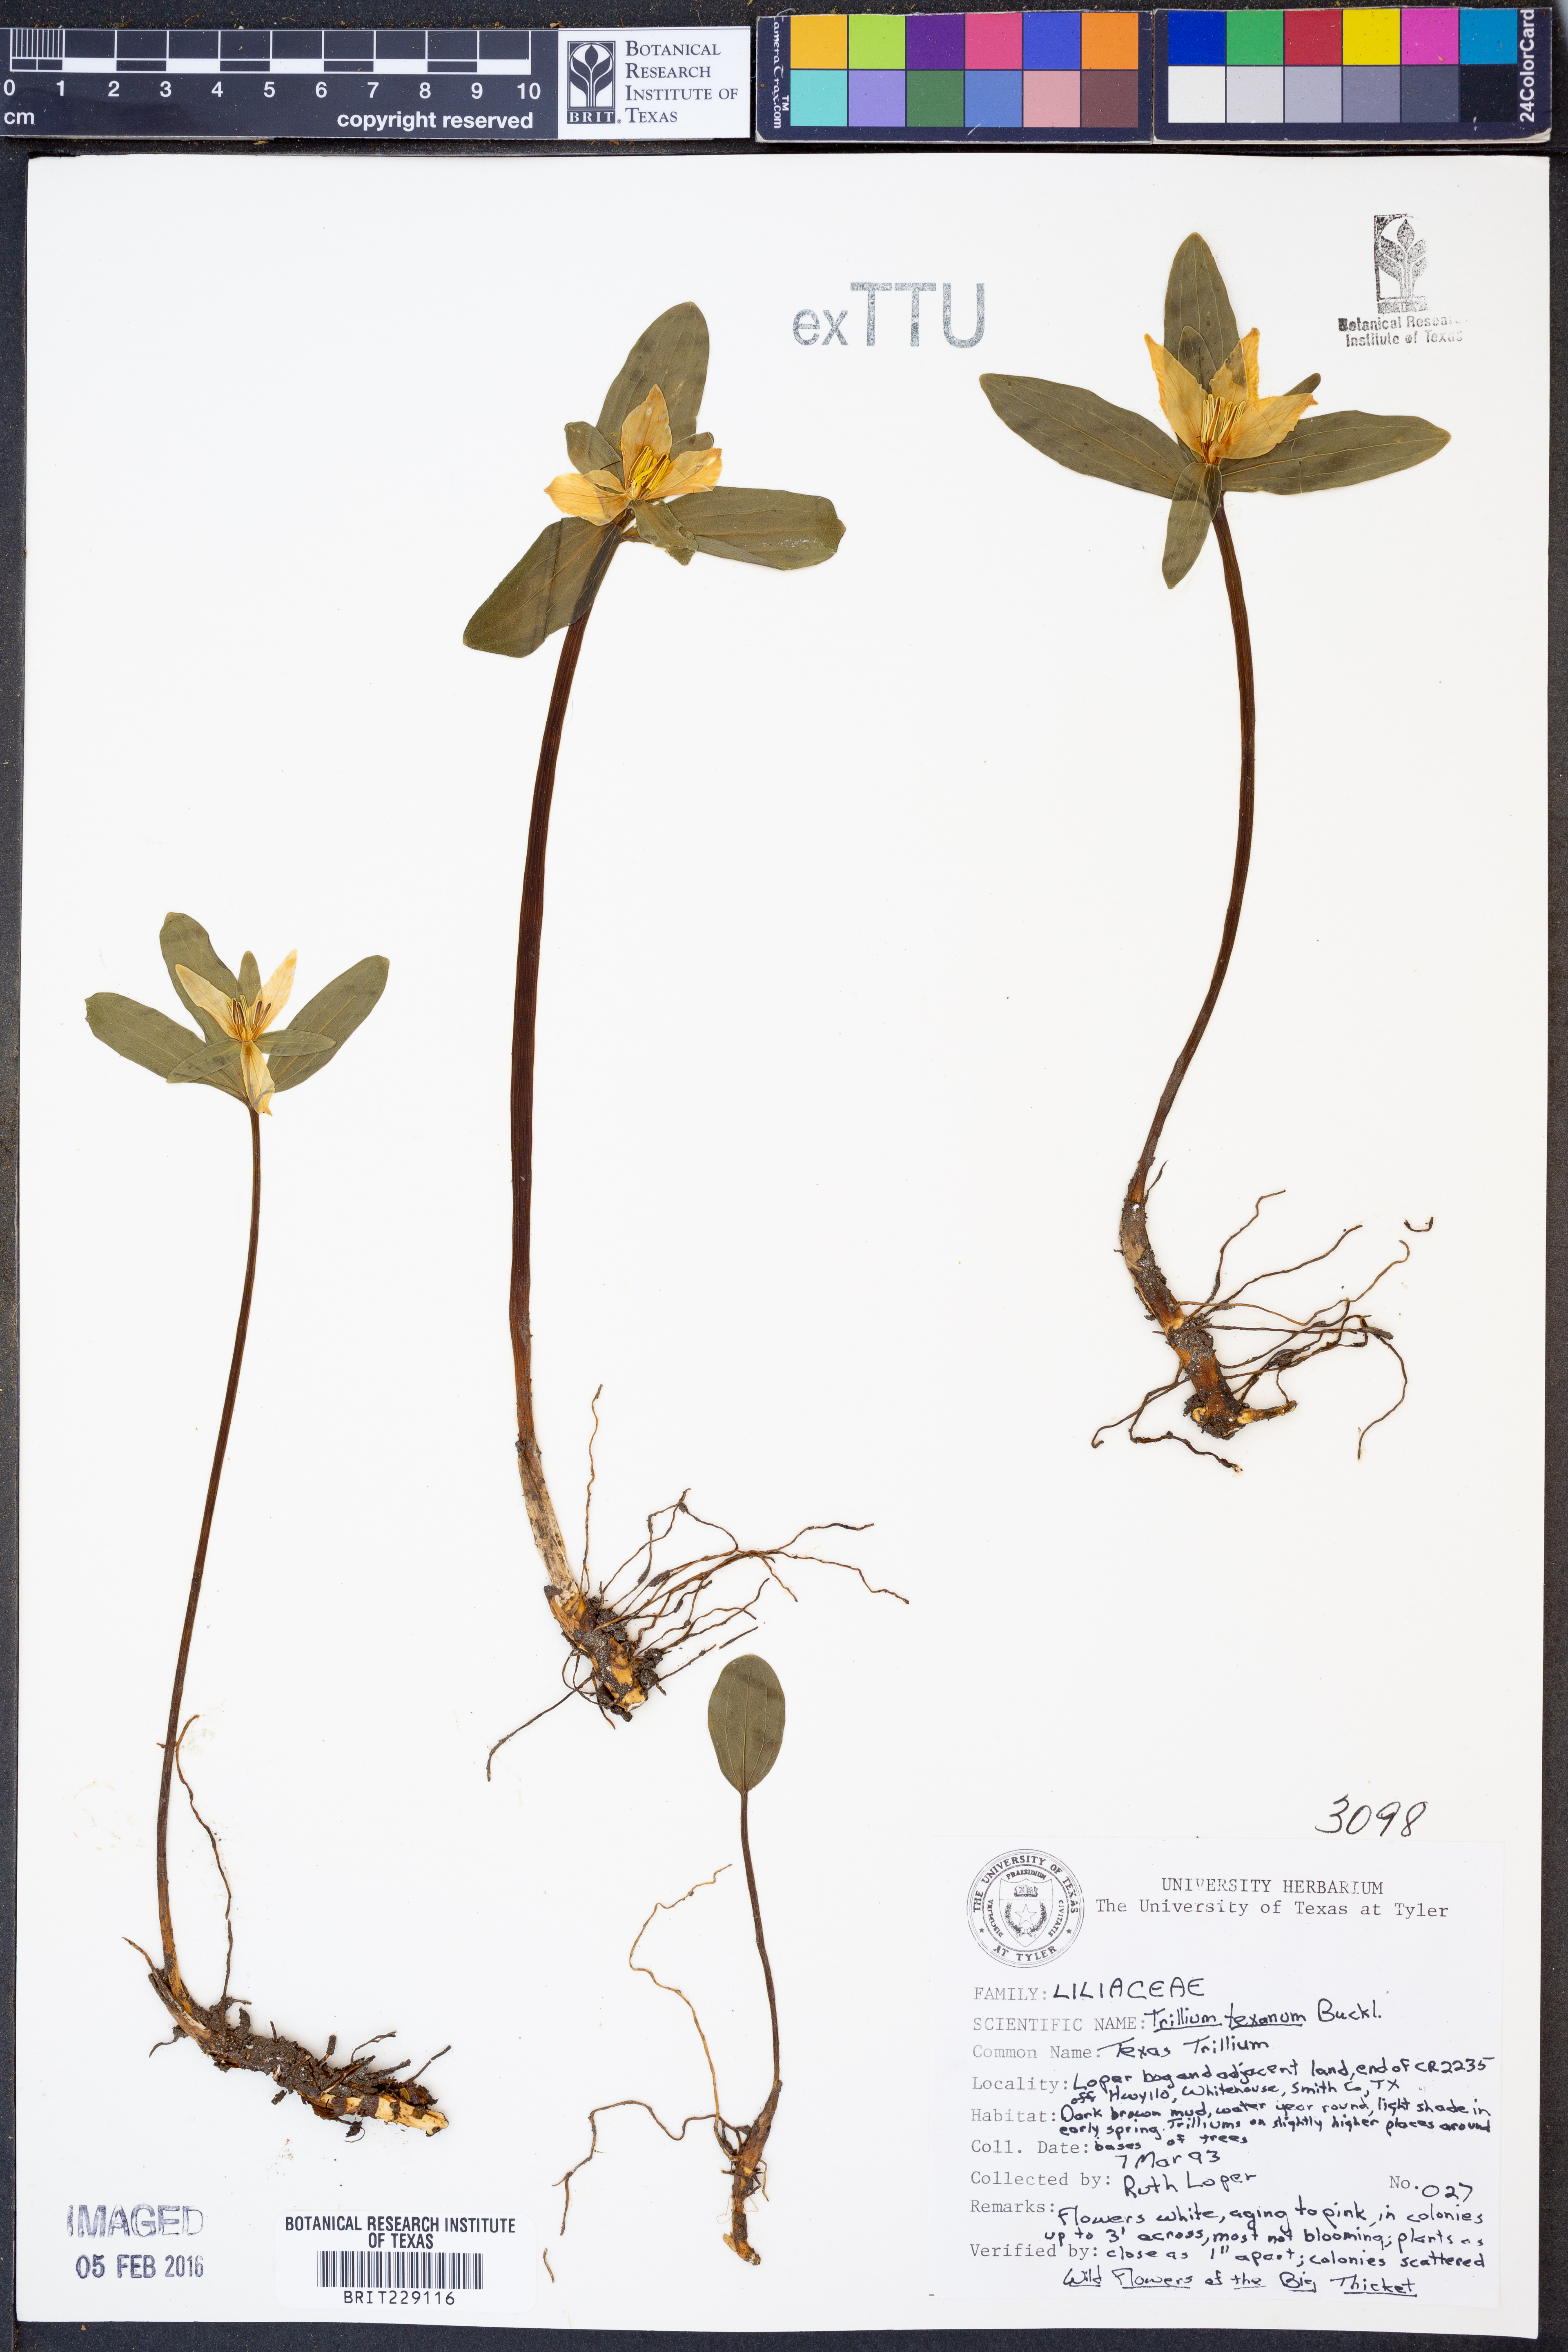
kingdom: Plantae
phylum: Tracheophyta
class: Liliopsida
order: Liliales
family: Melanthiaceae
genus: Trillium
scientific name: Trillium pusillum
